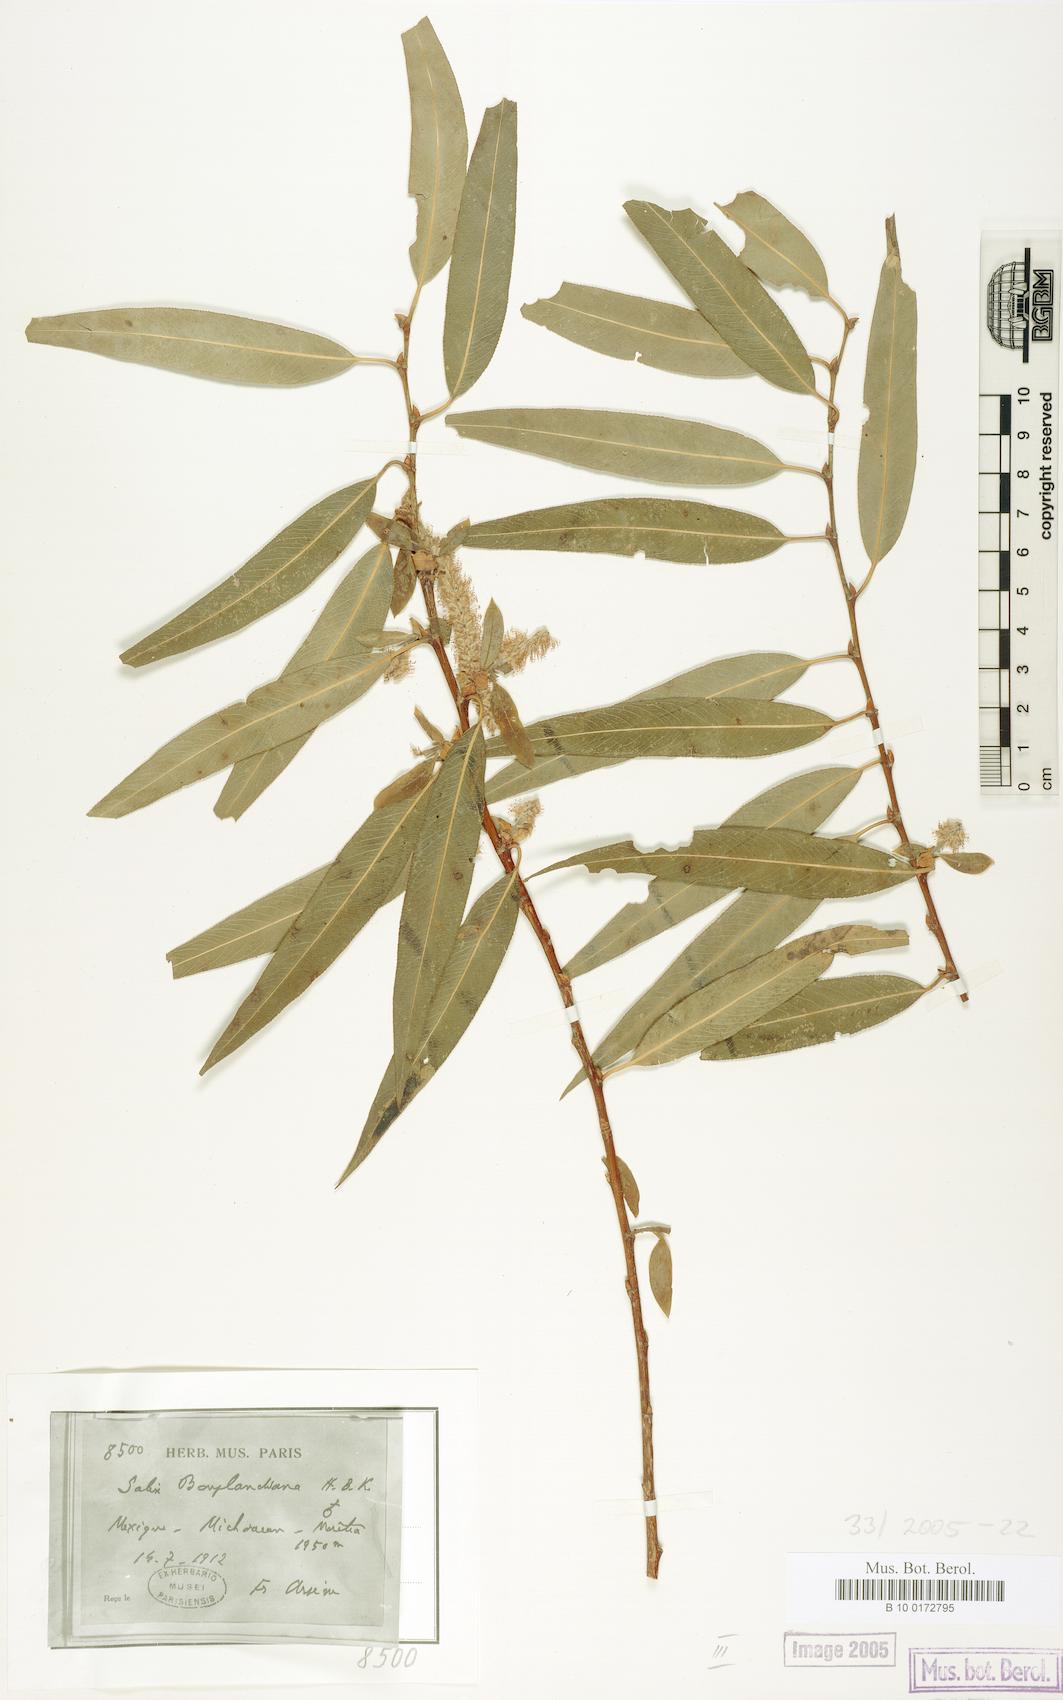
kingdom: Plantae
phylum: Tracheophyta
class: Magnoliopsida
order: Malpighiales
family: Salicaceae
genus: Salix
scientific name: Salix bonplandiana
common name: Bonpland’s willow
